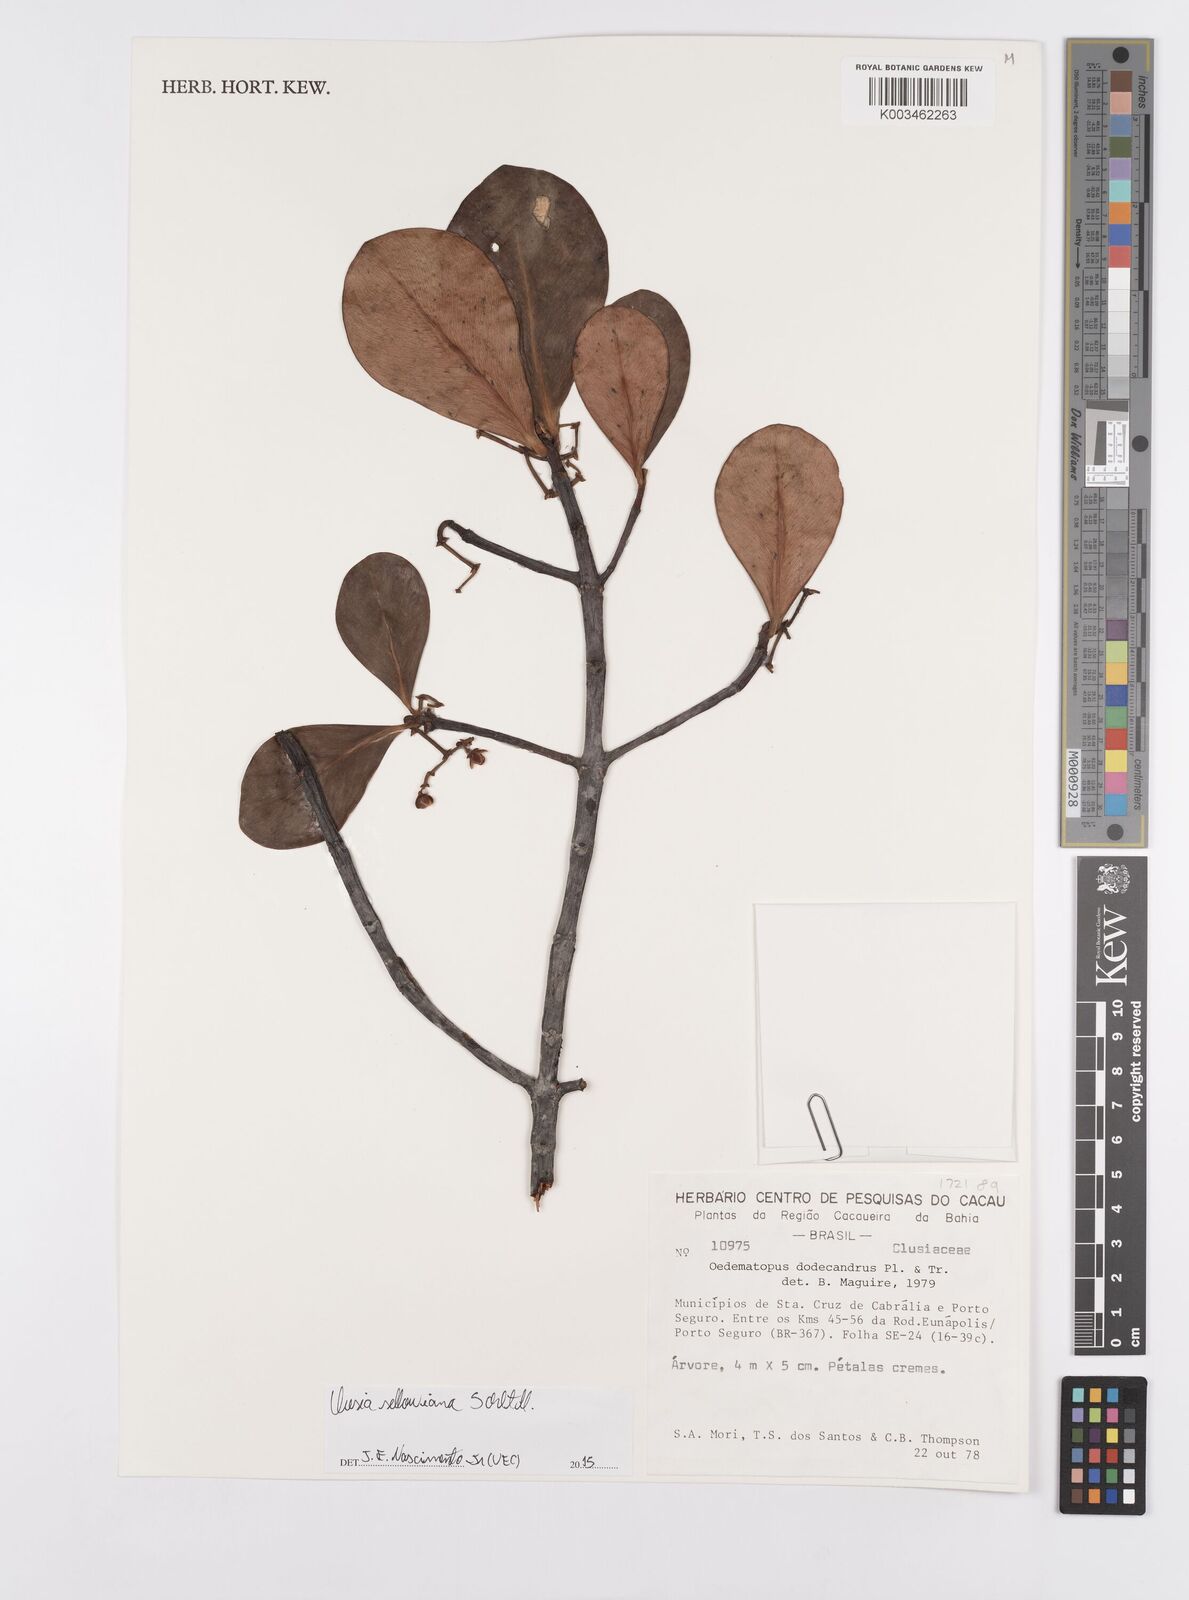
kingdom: Plantae
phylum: Tracheophyta
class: Magnoliopsida
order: Malpighiales
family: Clusiaceae
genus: Clusia
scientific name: Clusia sellowiana
